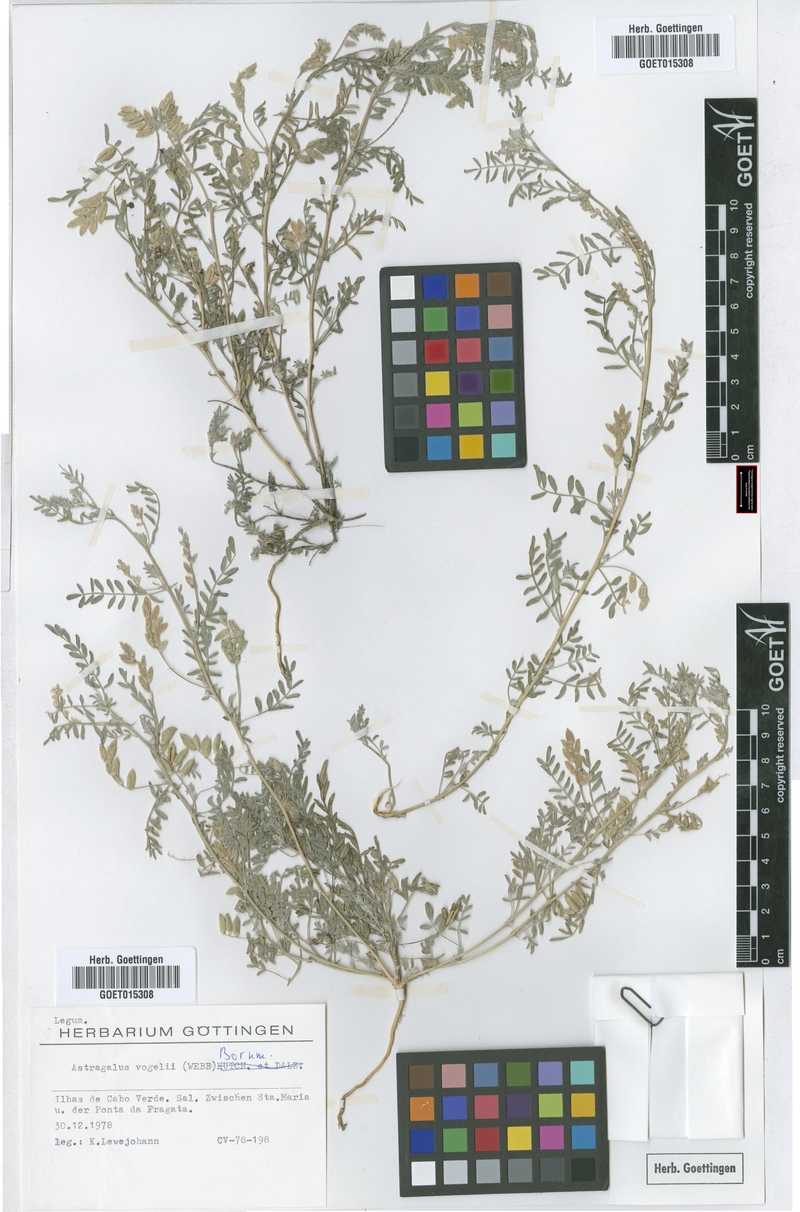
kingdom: Plantae
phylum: Tracheophyta
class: Magnoliopsida
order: Fabales
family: Fabaceae
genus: Astragalus
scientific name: Astragalus vogelii
